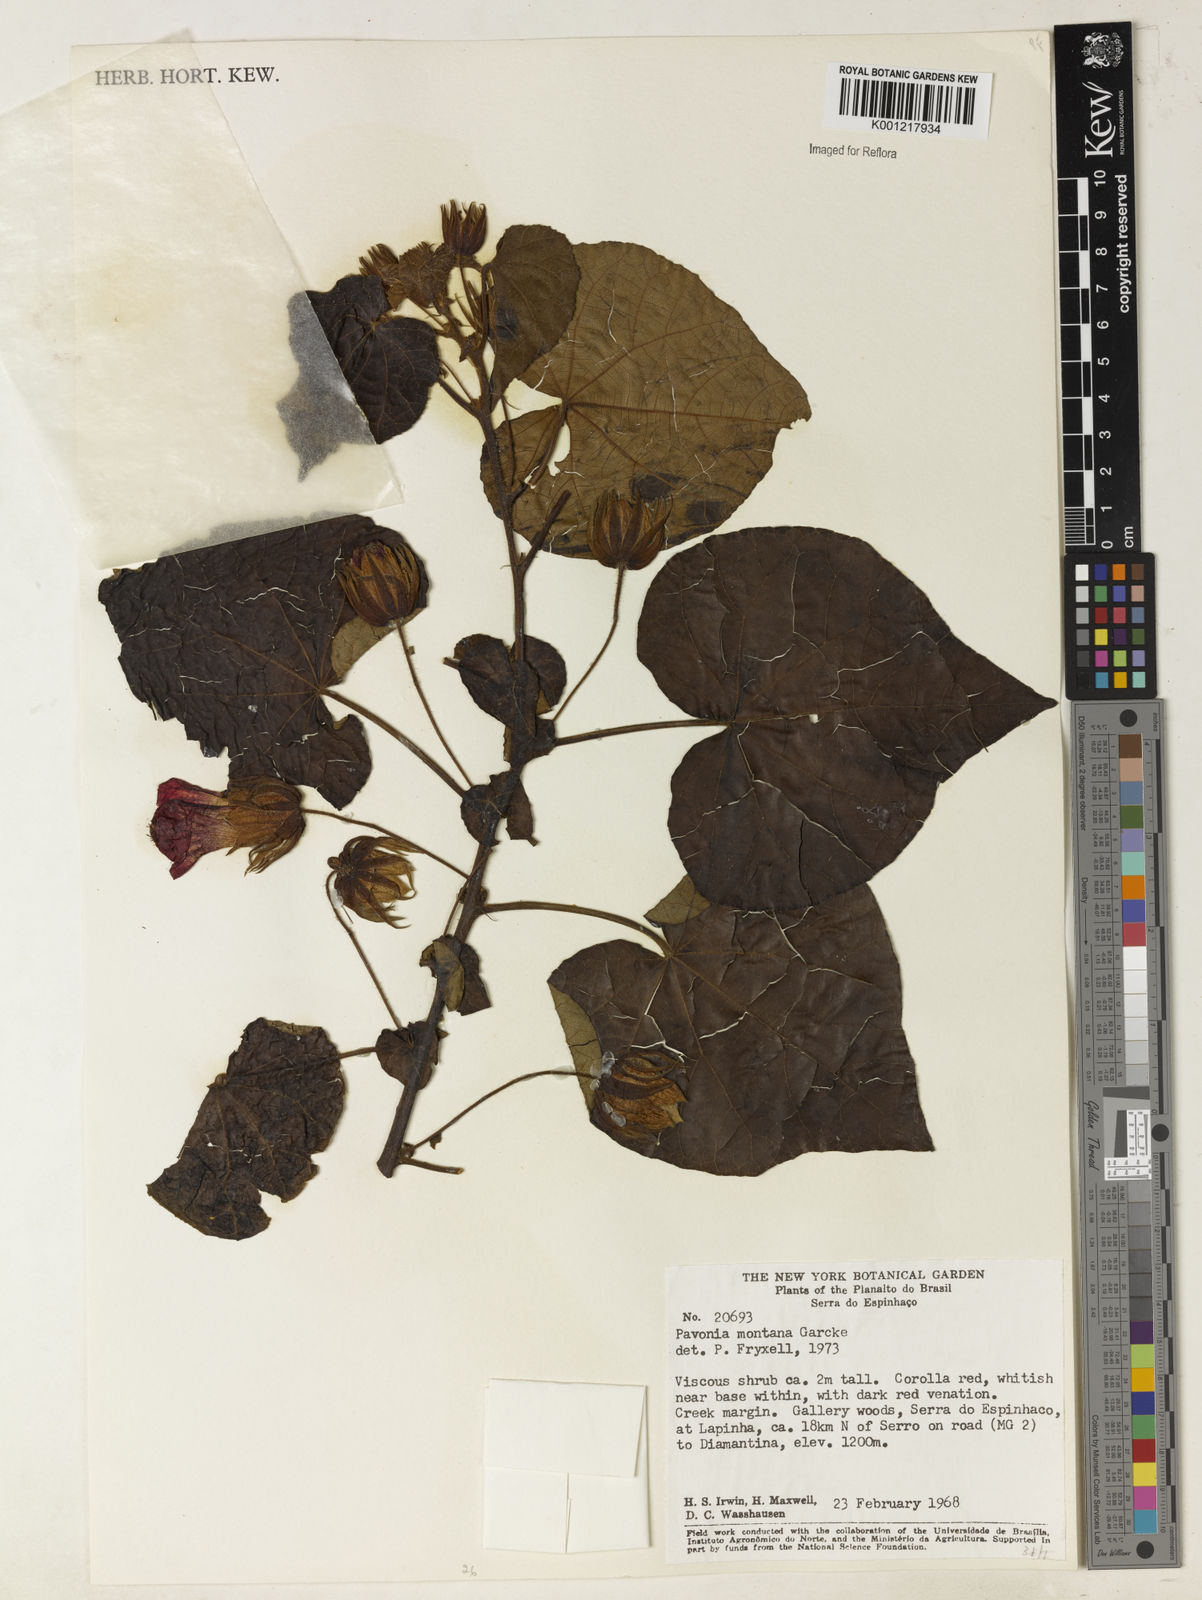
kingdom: Plantae
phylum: Tracheophyta
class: Magnoliopsida
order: Malvales
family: Malvaceae
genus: Pavonia
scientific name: Pavonia
